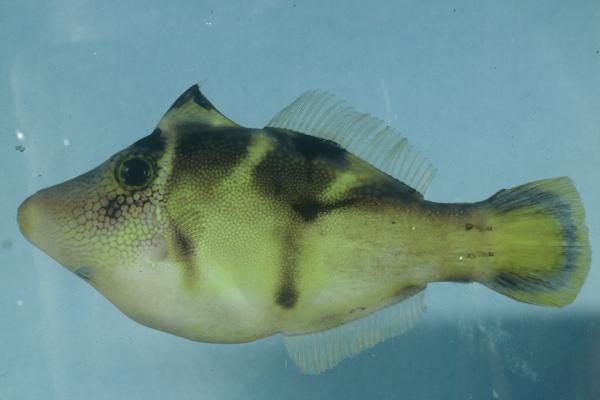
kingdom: Animalia
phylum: Chordata
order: Tetraodontiformes
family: Monacanthidae
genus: Paraluteres
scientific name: Paraluteres prionurus
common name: Black-saddled leatherjacket
